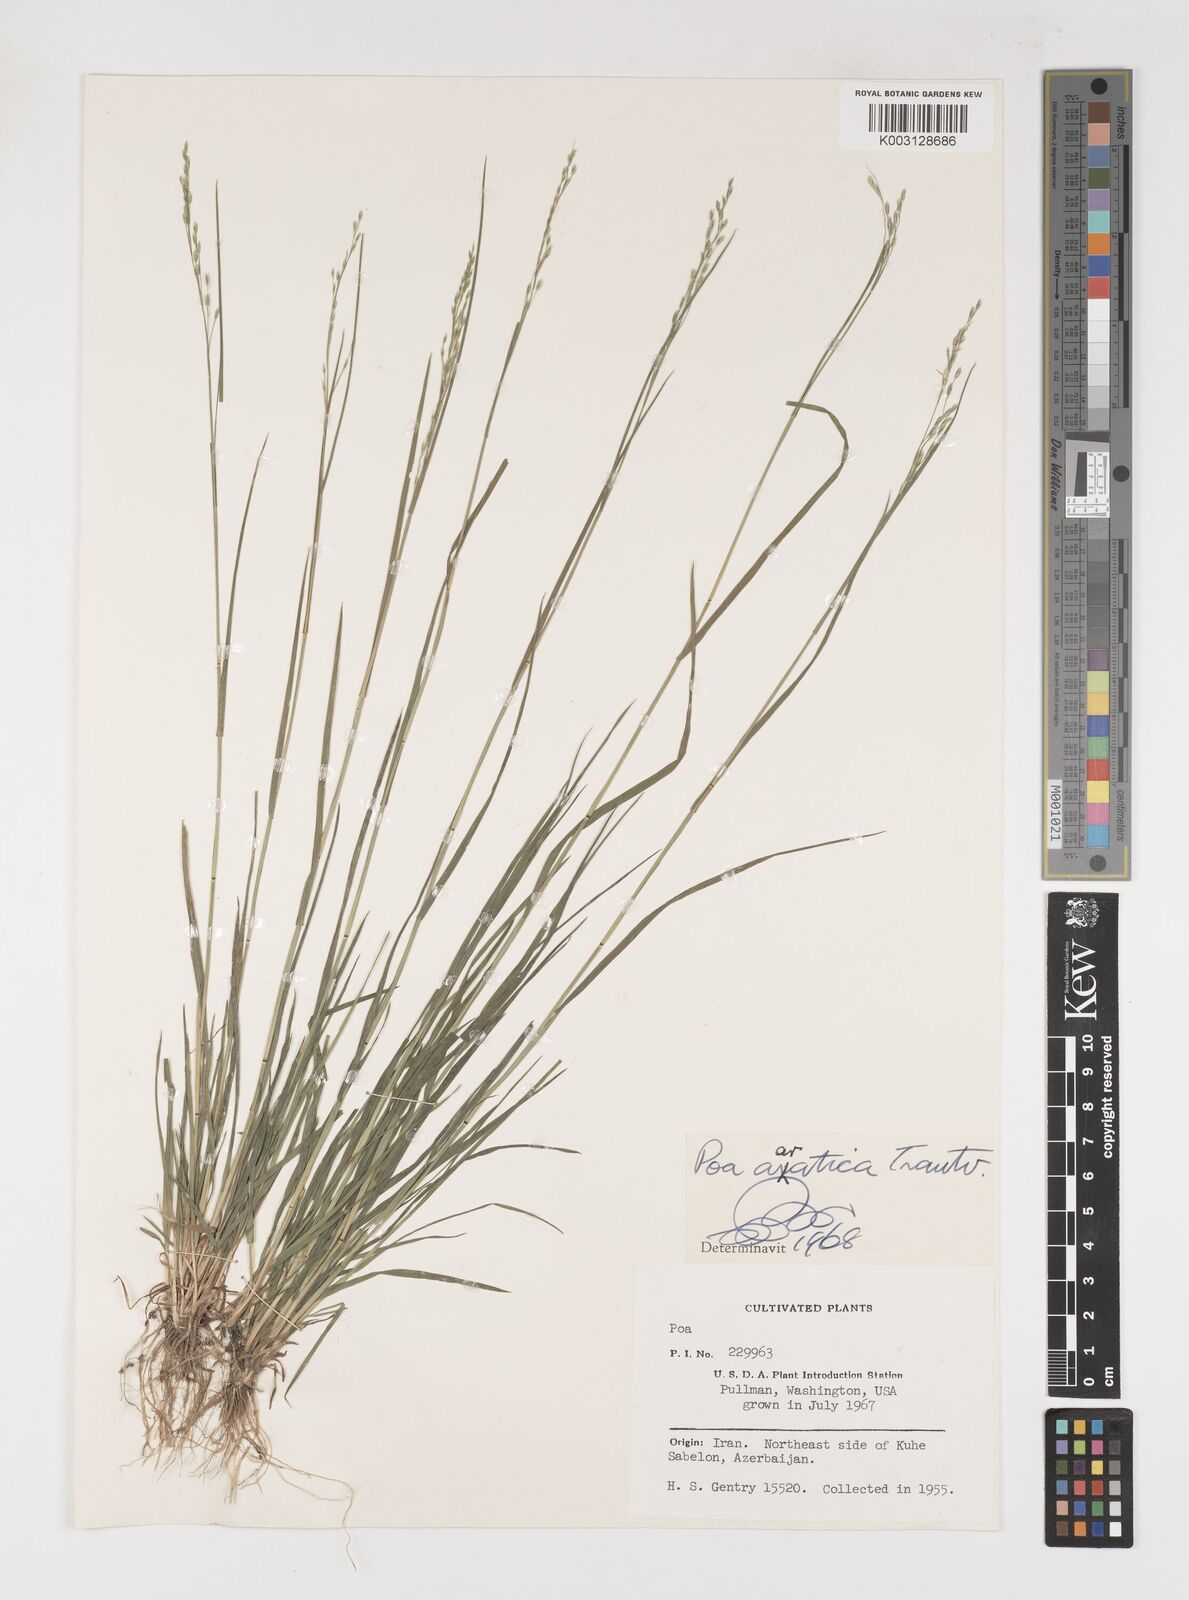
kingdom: Plantae
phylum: Tracheophyta
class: Liliopsida
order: Poales
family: Poaceae
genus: Poa
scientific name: Poa araratica
